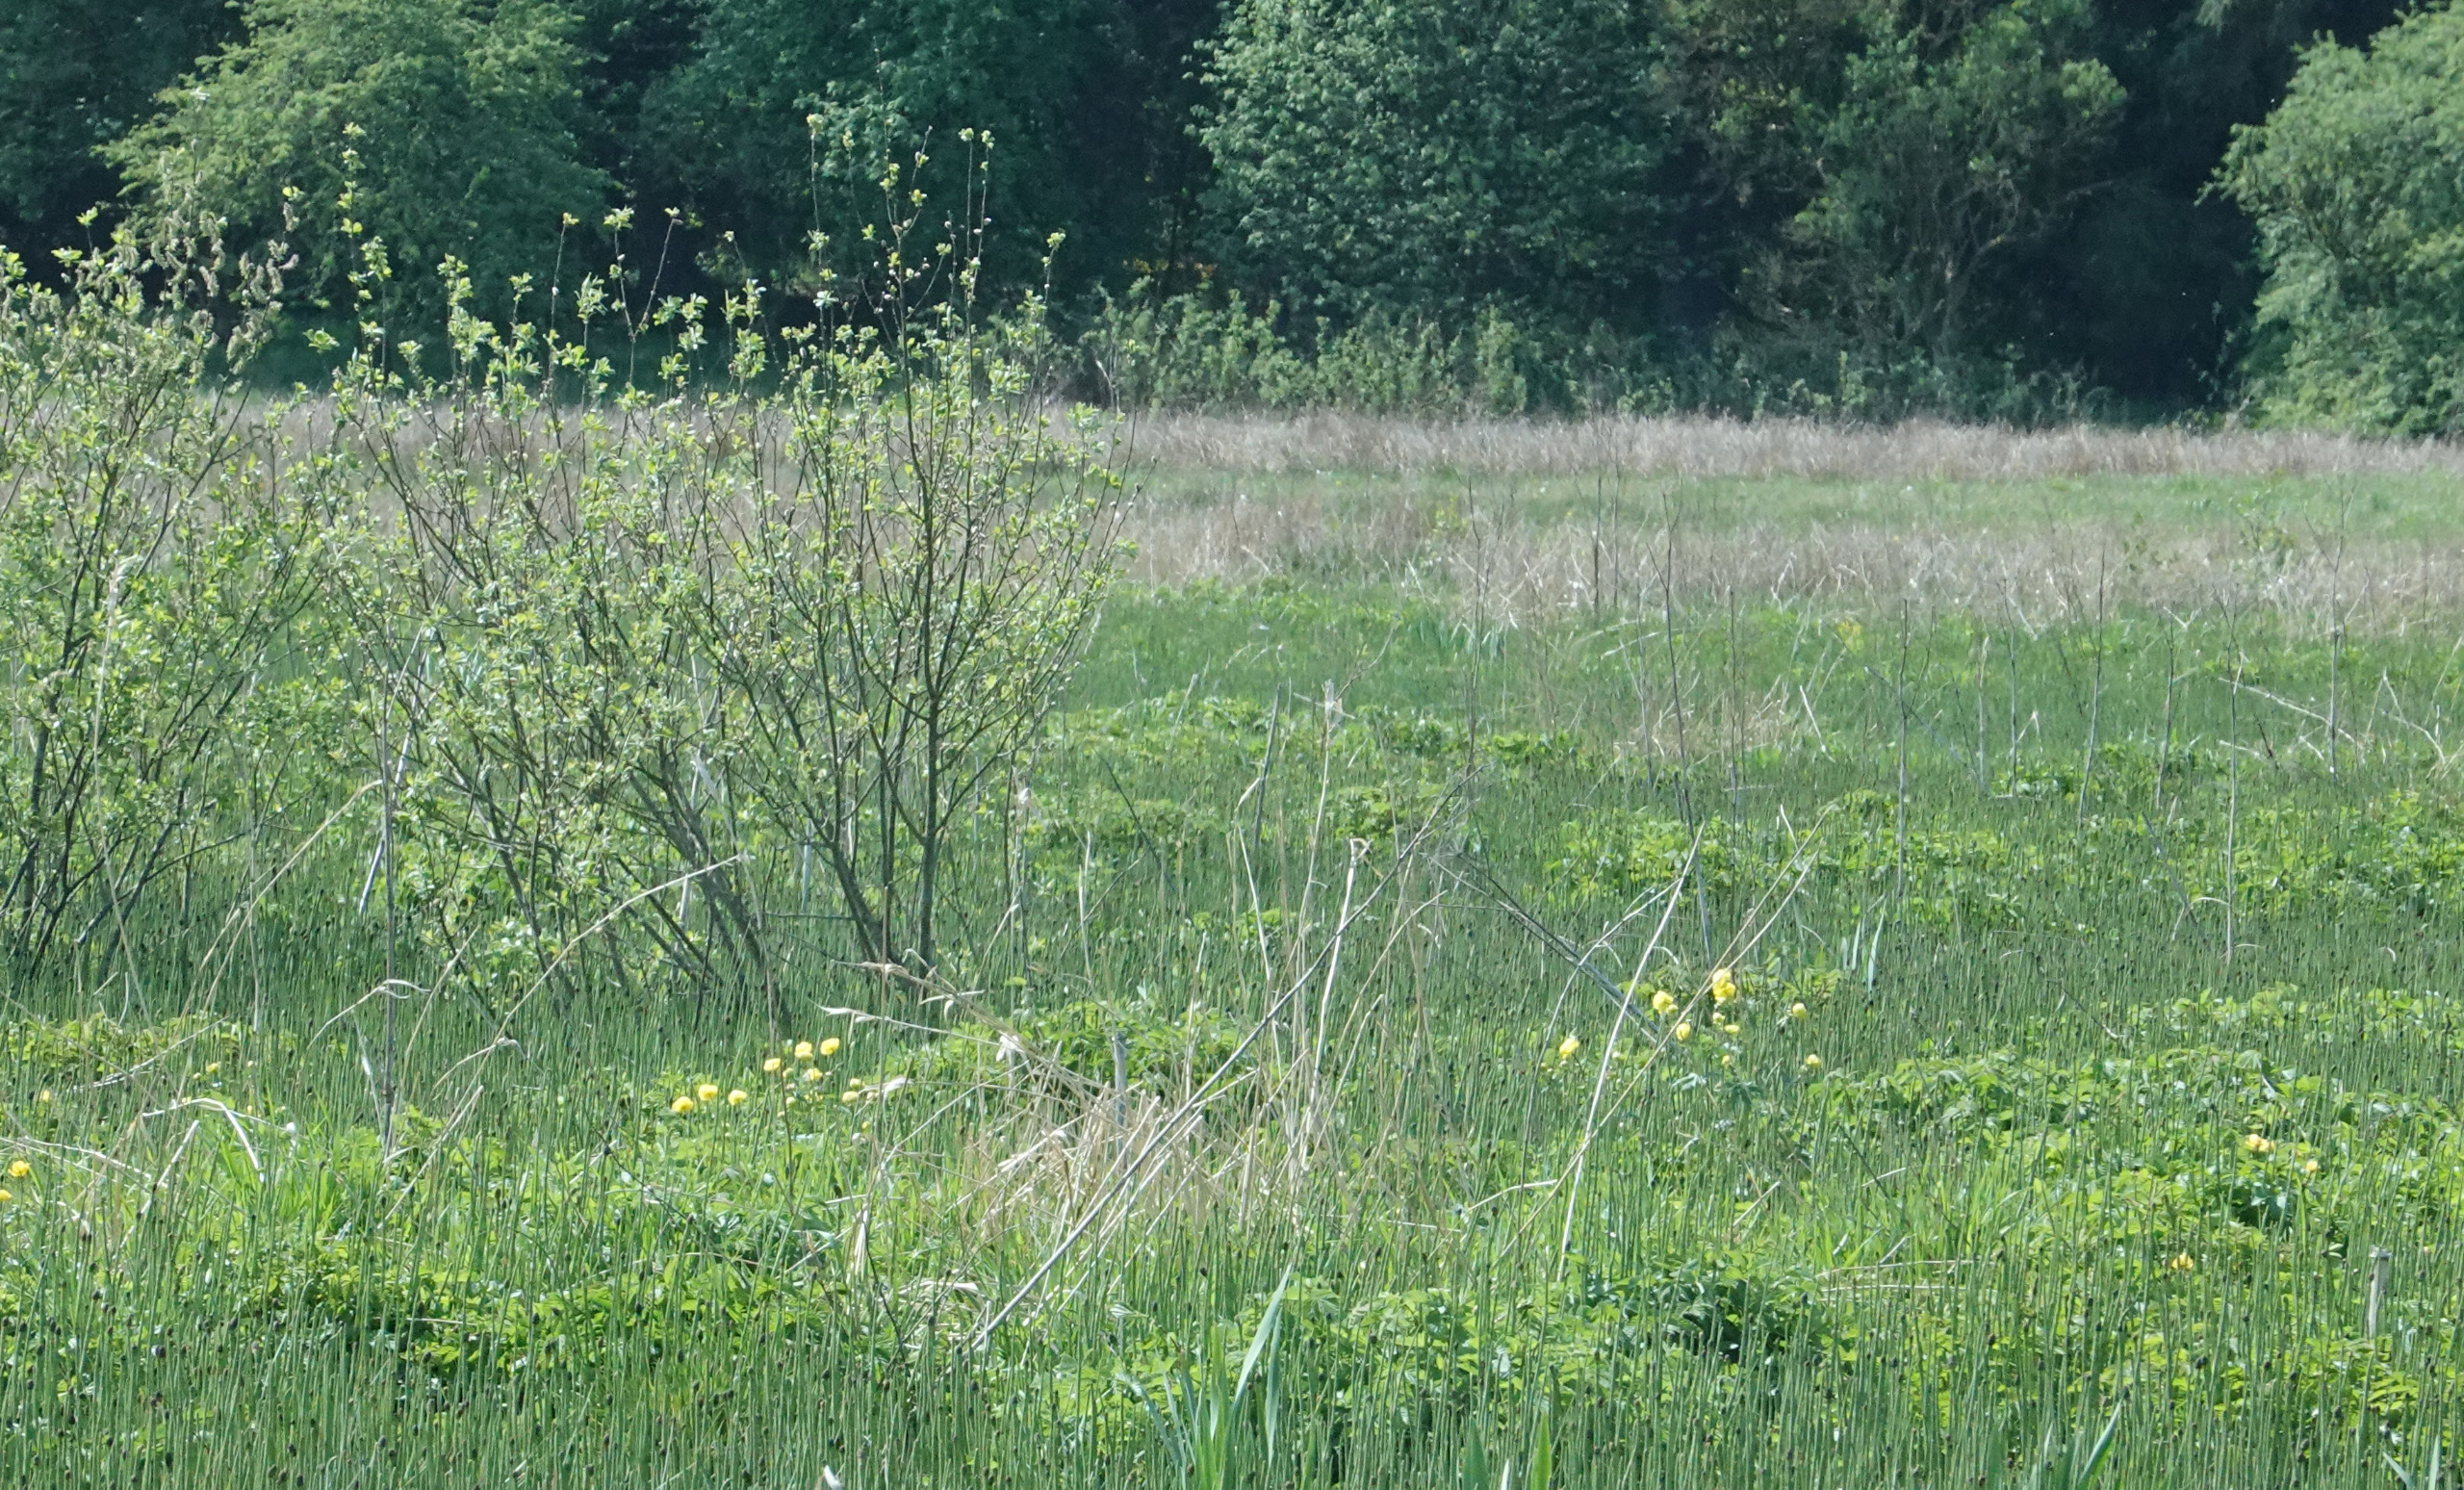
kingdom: Plantae
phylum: Tracheophyta
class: Magnoliopsida
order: Ranunculales
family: Ranunculaceae
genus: Trollius
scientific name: Trollius europaeus
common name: Engblomme
